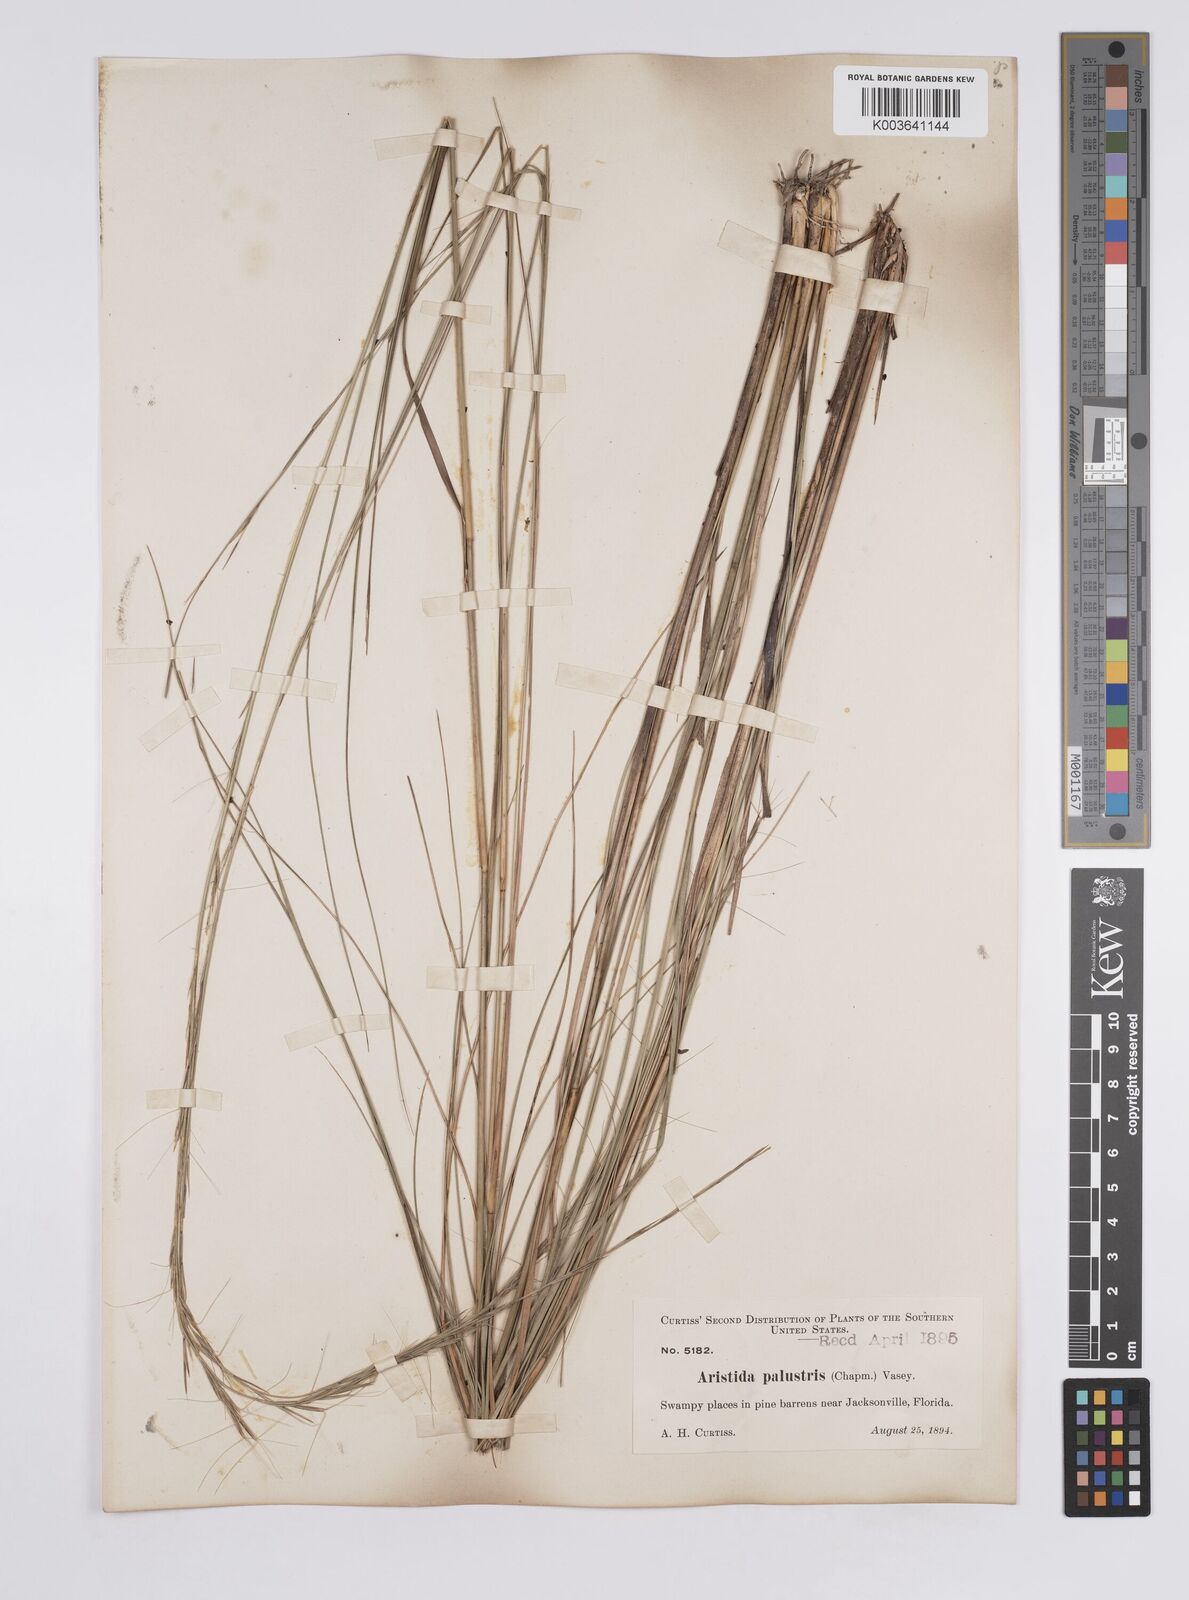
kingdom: Plantae
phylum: Tracheophyta
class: Liliopsida
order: Poales
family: Poaceae
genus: Aristida
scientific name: Aristida palustris
